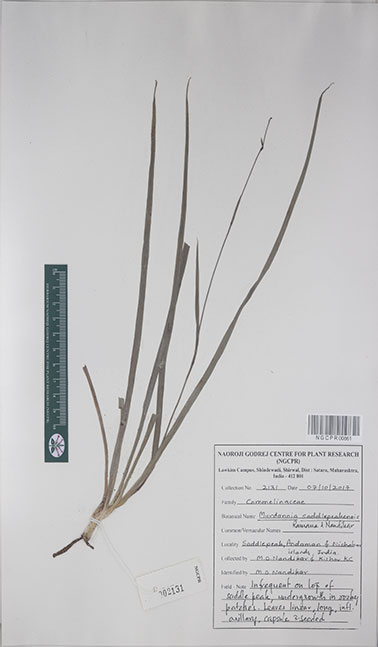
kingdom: Plantae
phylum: Tracheophyta
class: Liliopsida
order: Commelinales
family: Commelinaceae
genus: Murdannia
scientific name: Murdannia saddlepeakensis
